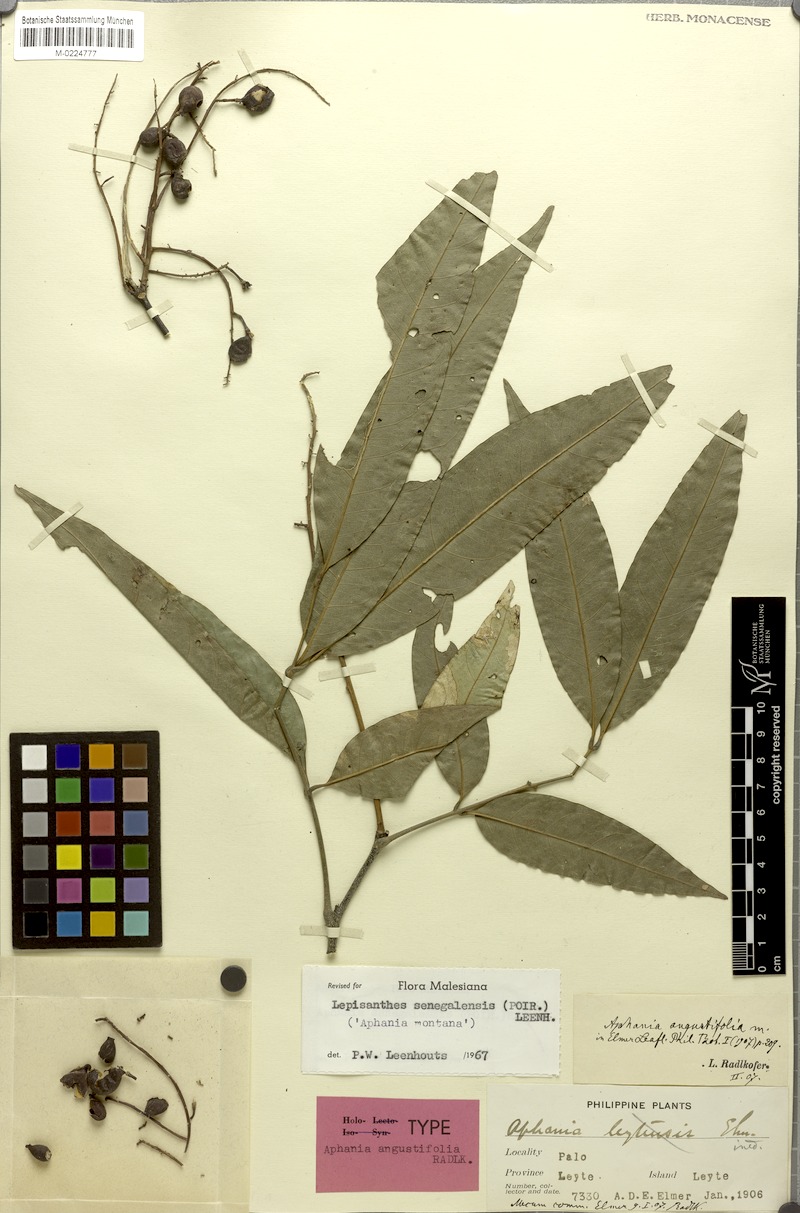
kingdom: Plantae
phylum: Tracheophyta
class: Magnoliopsida
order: Sapindales
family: Sapindaceae
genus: Lepisanthes
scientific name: Lepisanthes senegalensis
